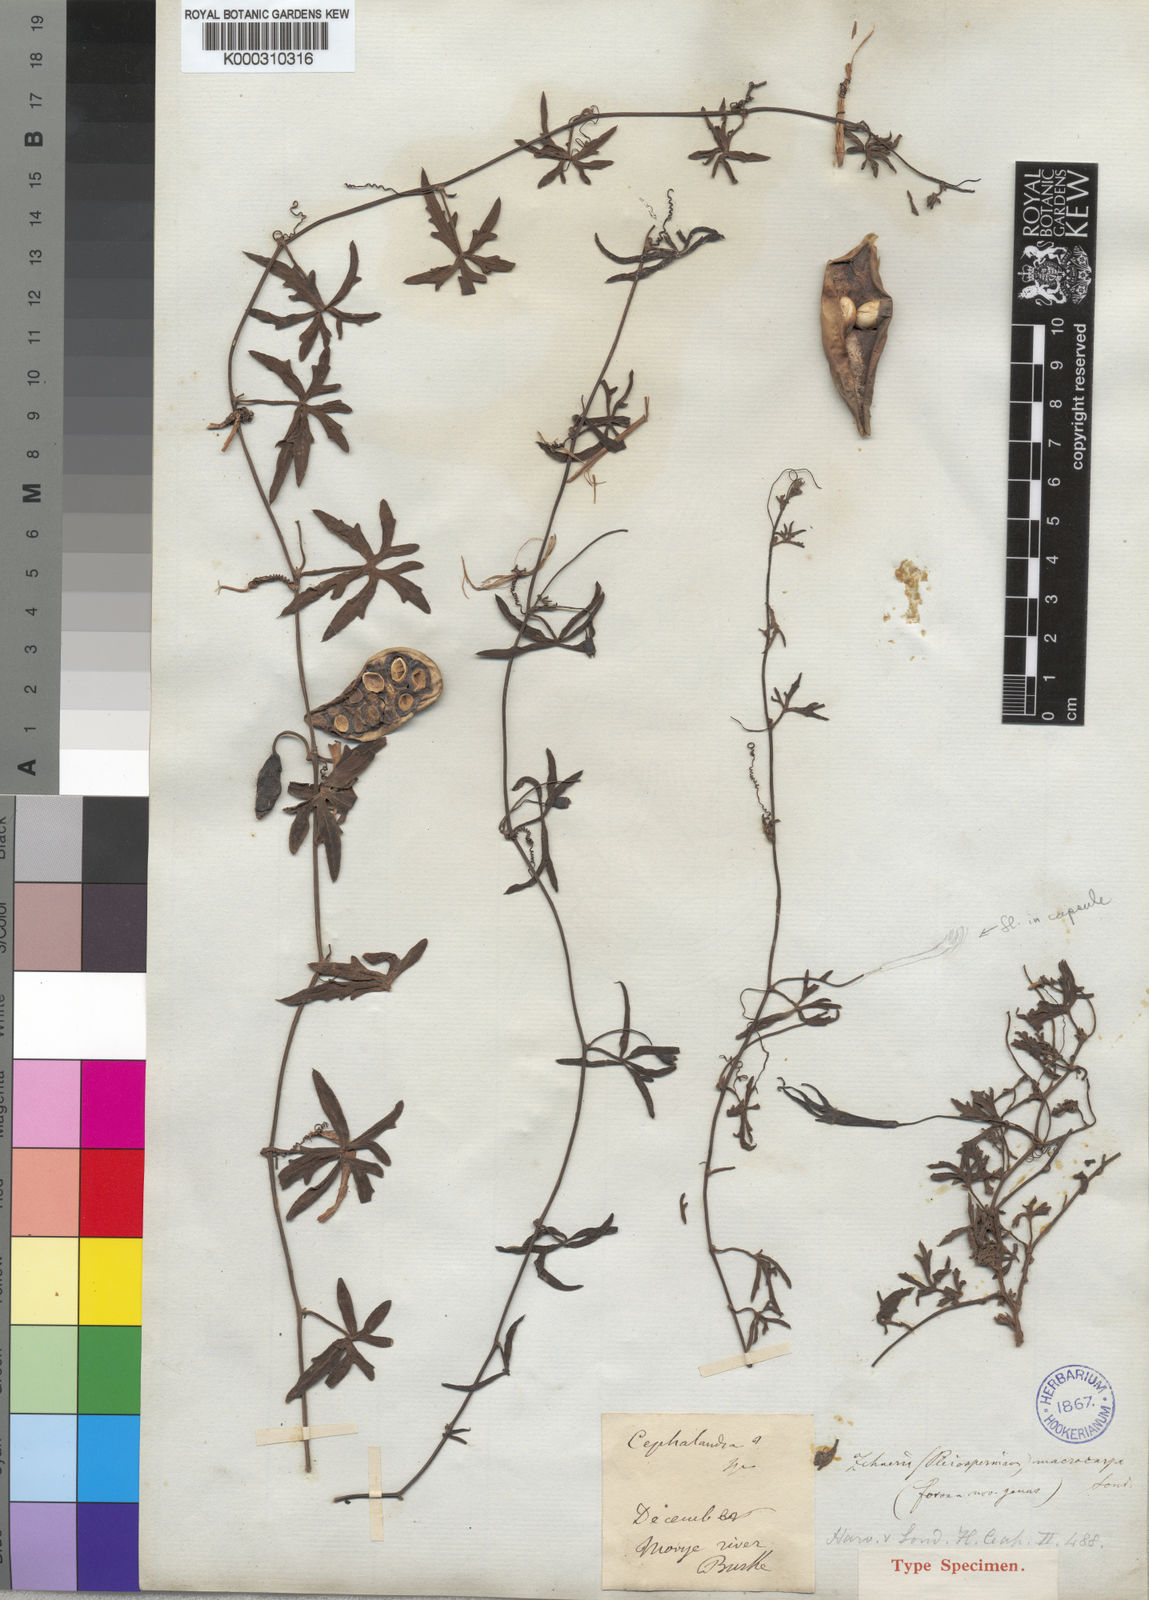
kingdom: Plantae
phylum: Tracheophyta
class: Magnoliopsida
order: Cucurbitales
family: Cucurbitaceae
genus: Trochomeria
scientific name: Trochomeria macrocarpa
